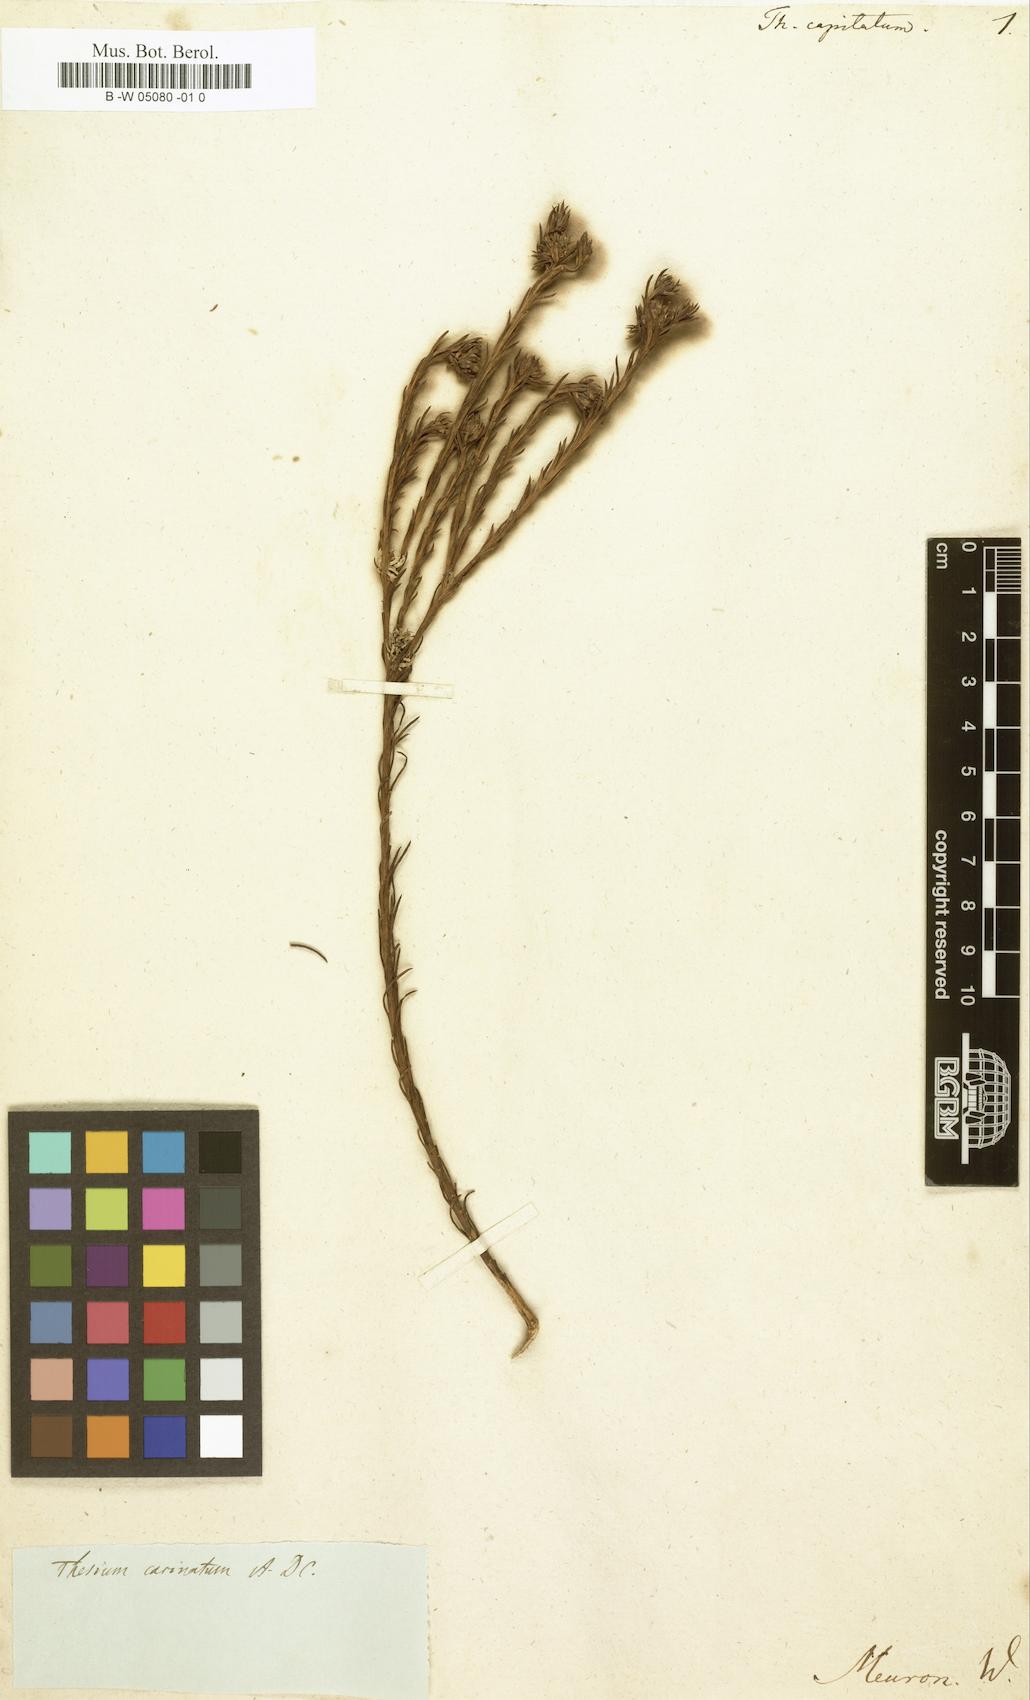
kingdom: Plantae
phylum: Tracheophyta
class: Magnoliopsida
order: Santalales
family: Thesiaceae
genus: Thesium
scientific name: Thesium capitatum
